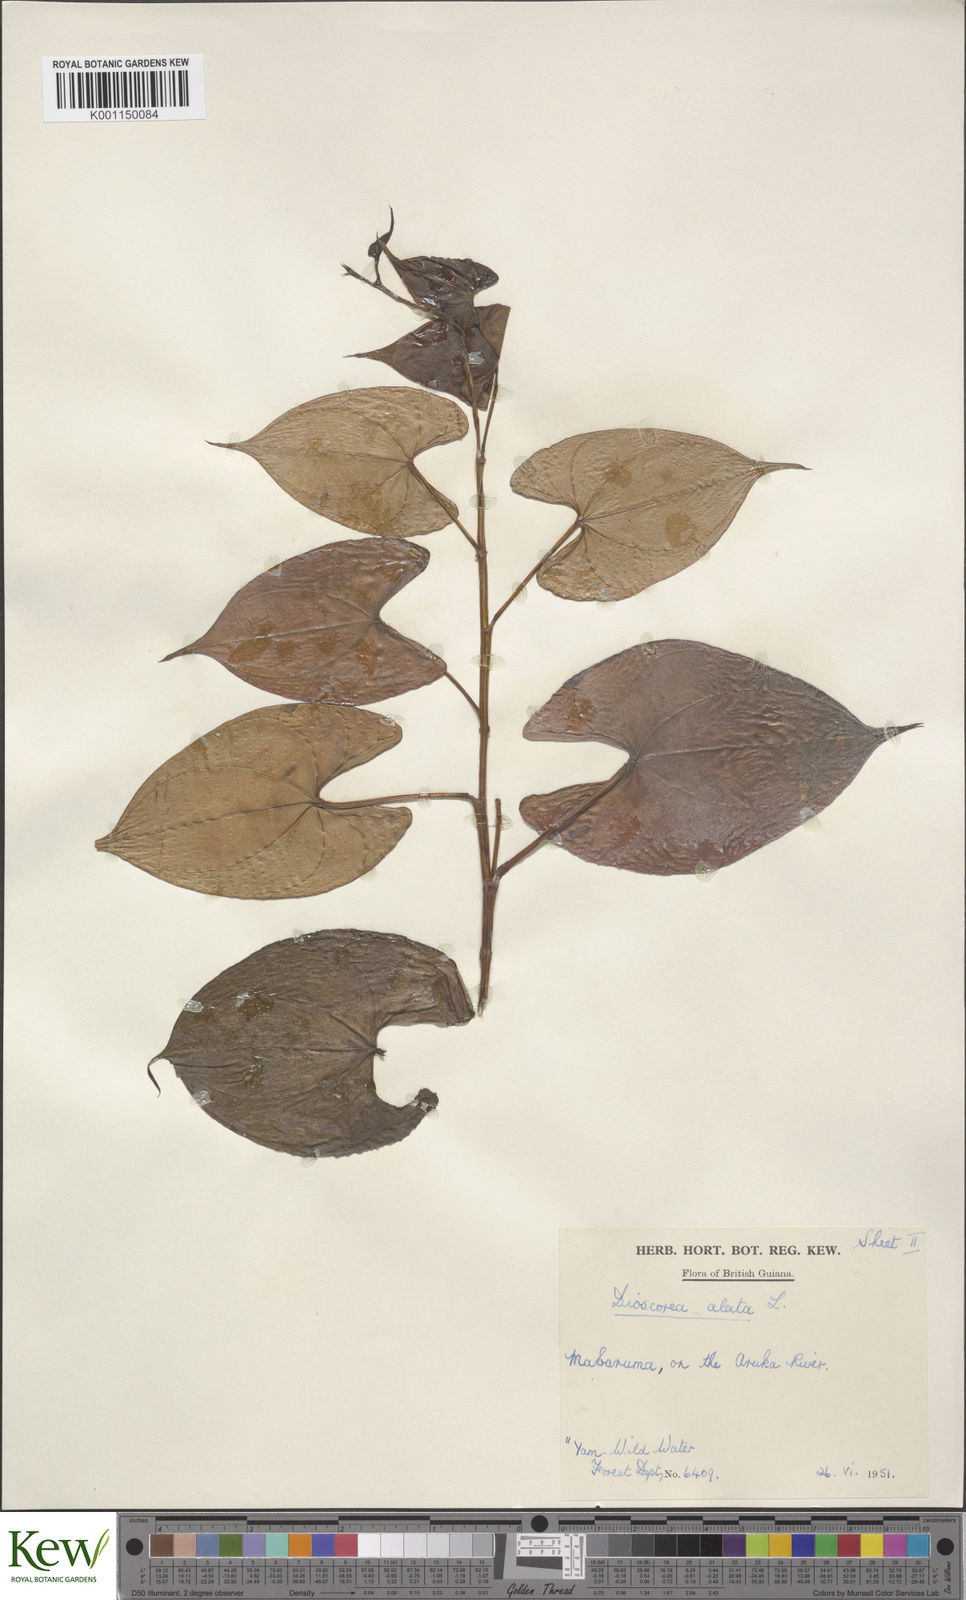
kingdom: Plantae
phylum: Tracheophyta
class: Liliopsida
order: Dioscoreales
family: Dioscoreaceae
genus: Dioscorea
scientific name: Dioscorea alata
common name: Water yam
